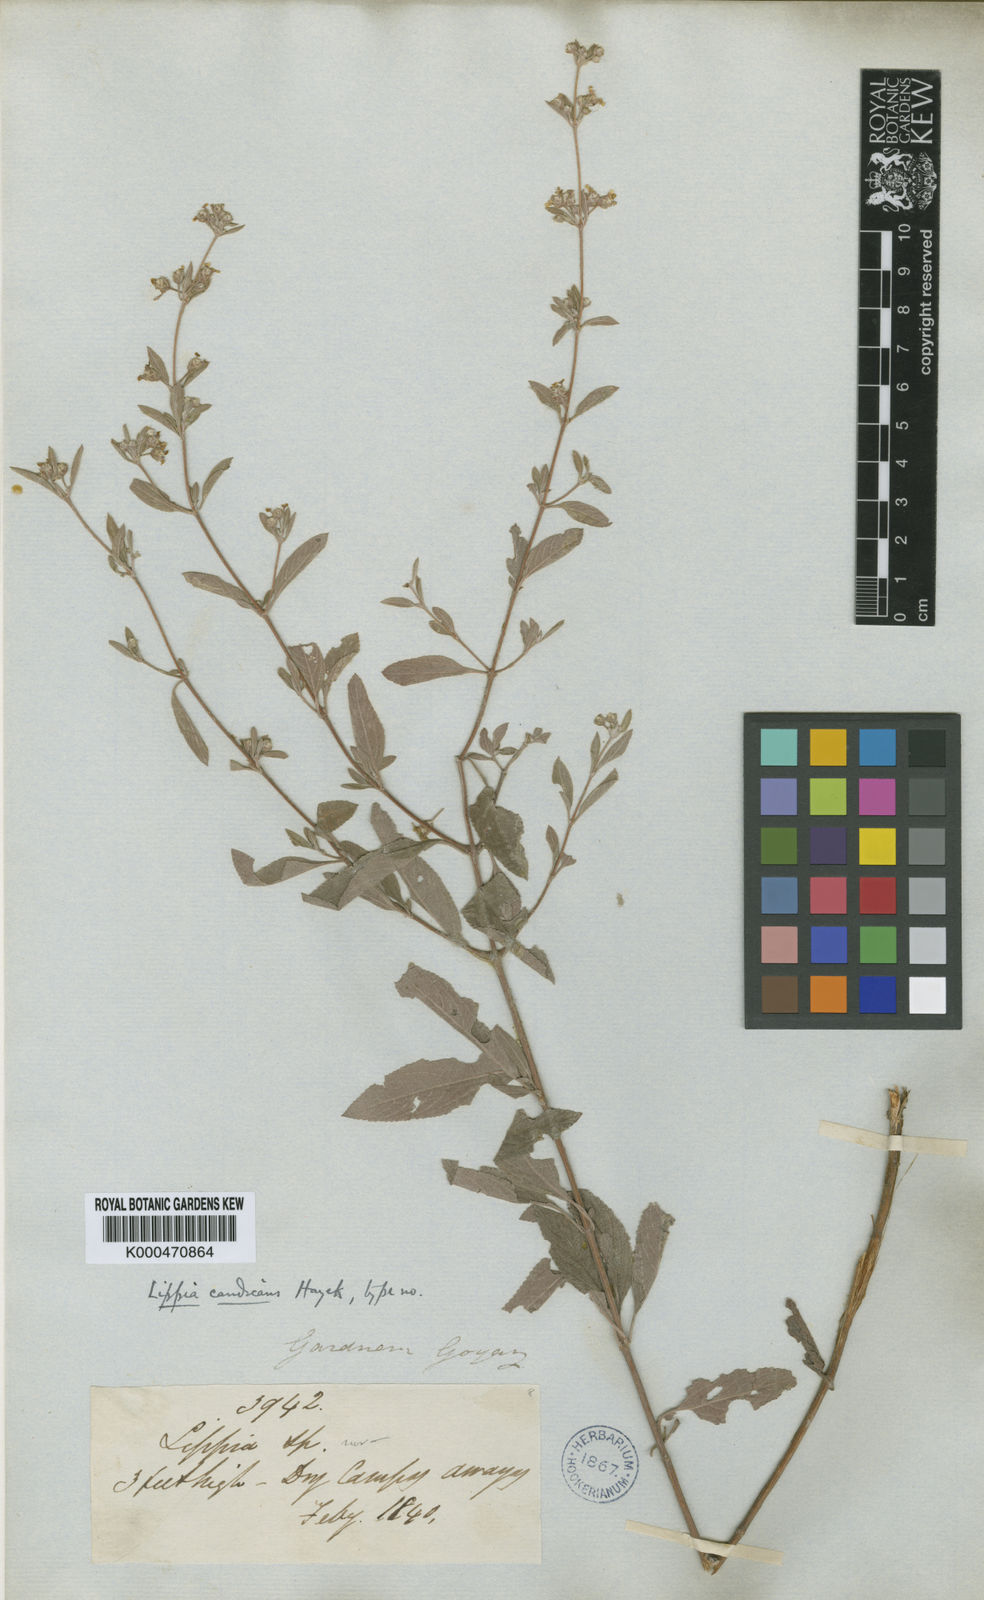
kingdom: Plantae
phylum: Tracheophyta
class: Magnoliopsida
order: Lamiales
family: Verbenaceae
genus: Lippia
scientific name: Lippia origanoides
